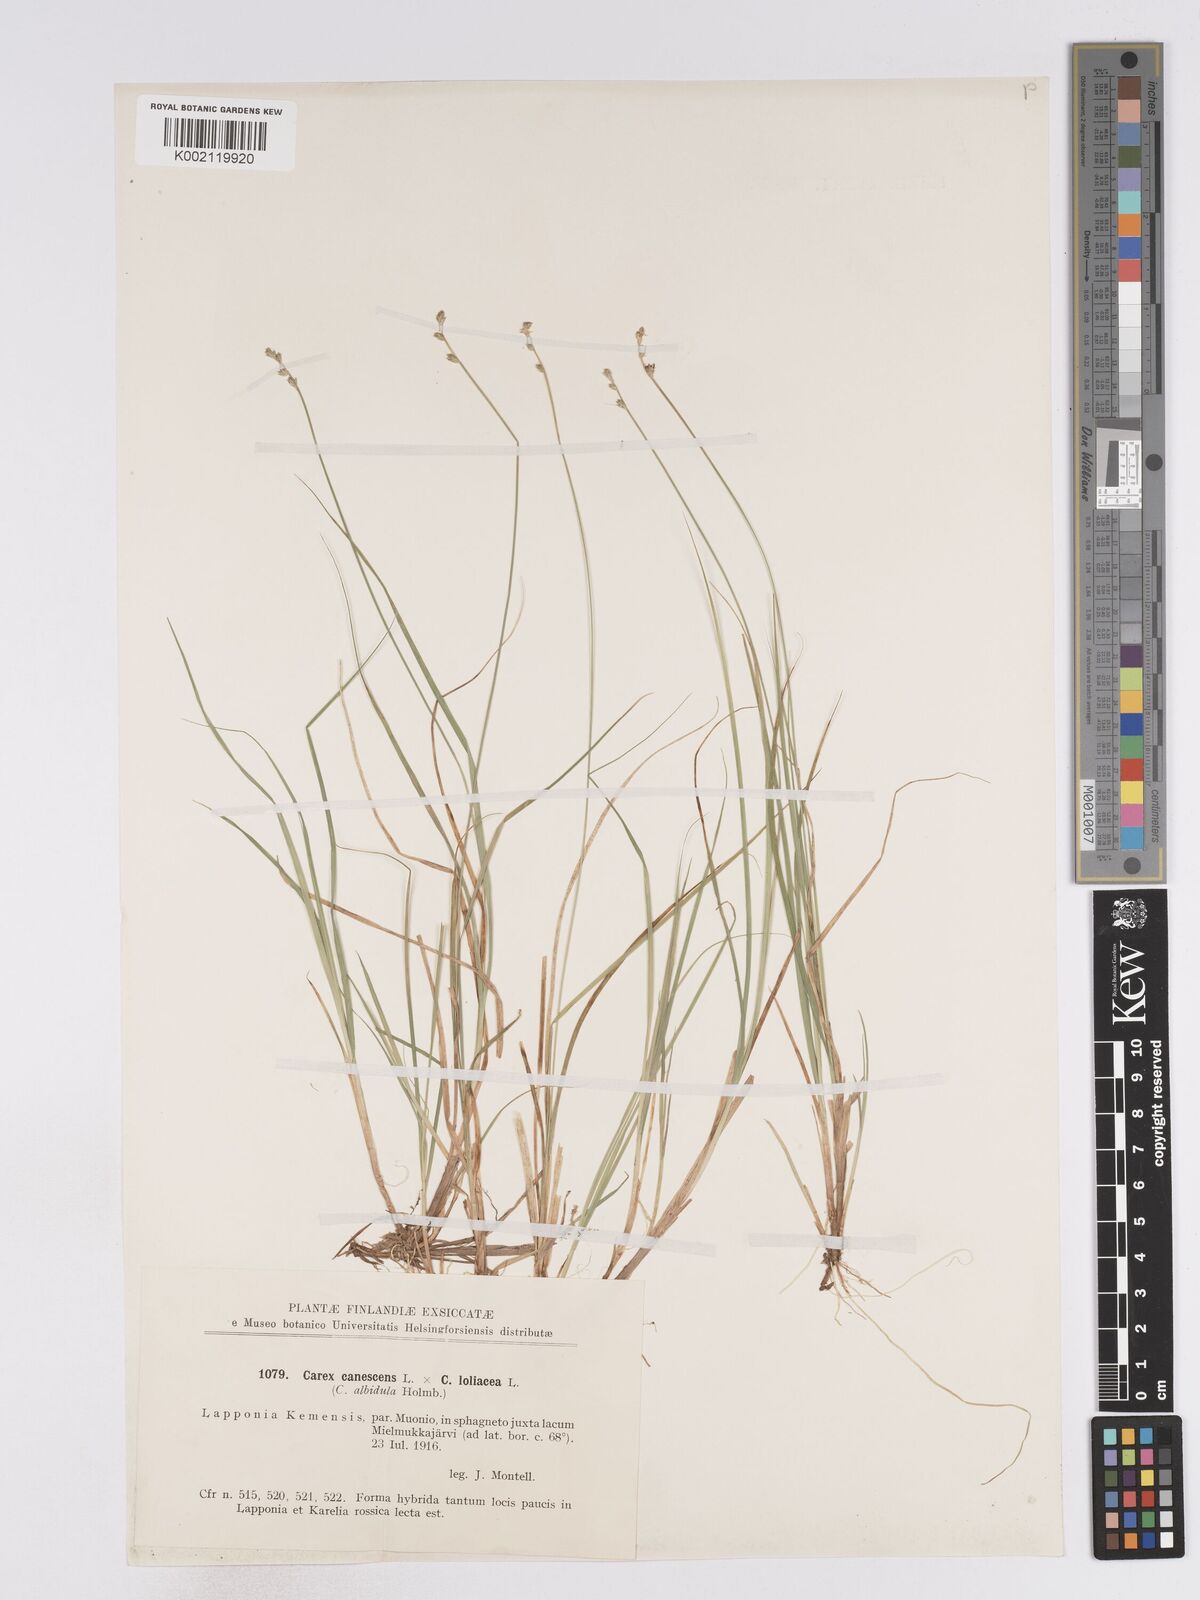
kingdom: Plantae
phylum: Tracheophyta
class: Liliopsida
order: Poales
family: Cyperaceae
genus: Carex
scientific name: Carex curta
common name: White sedge
